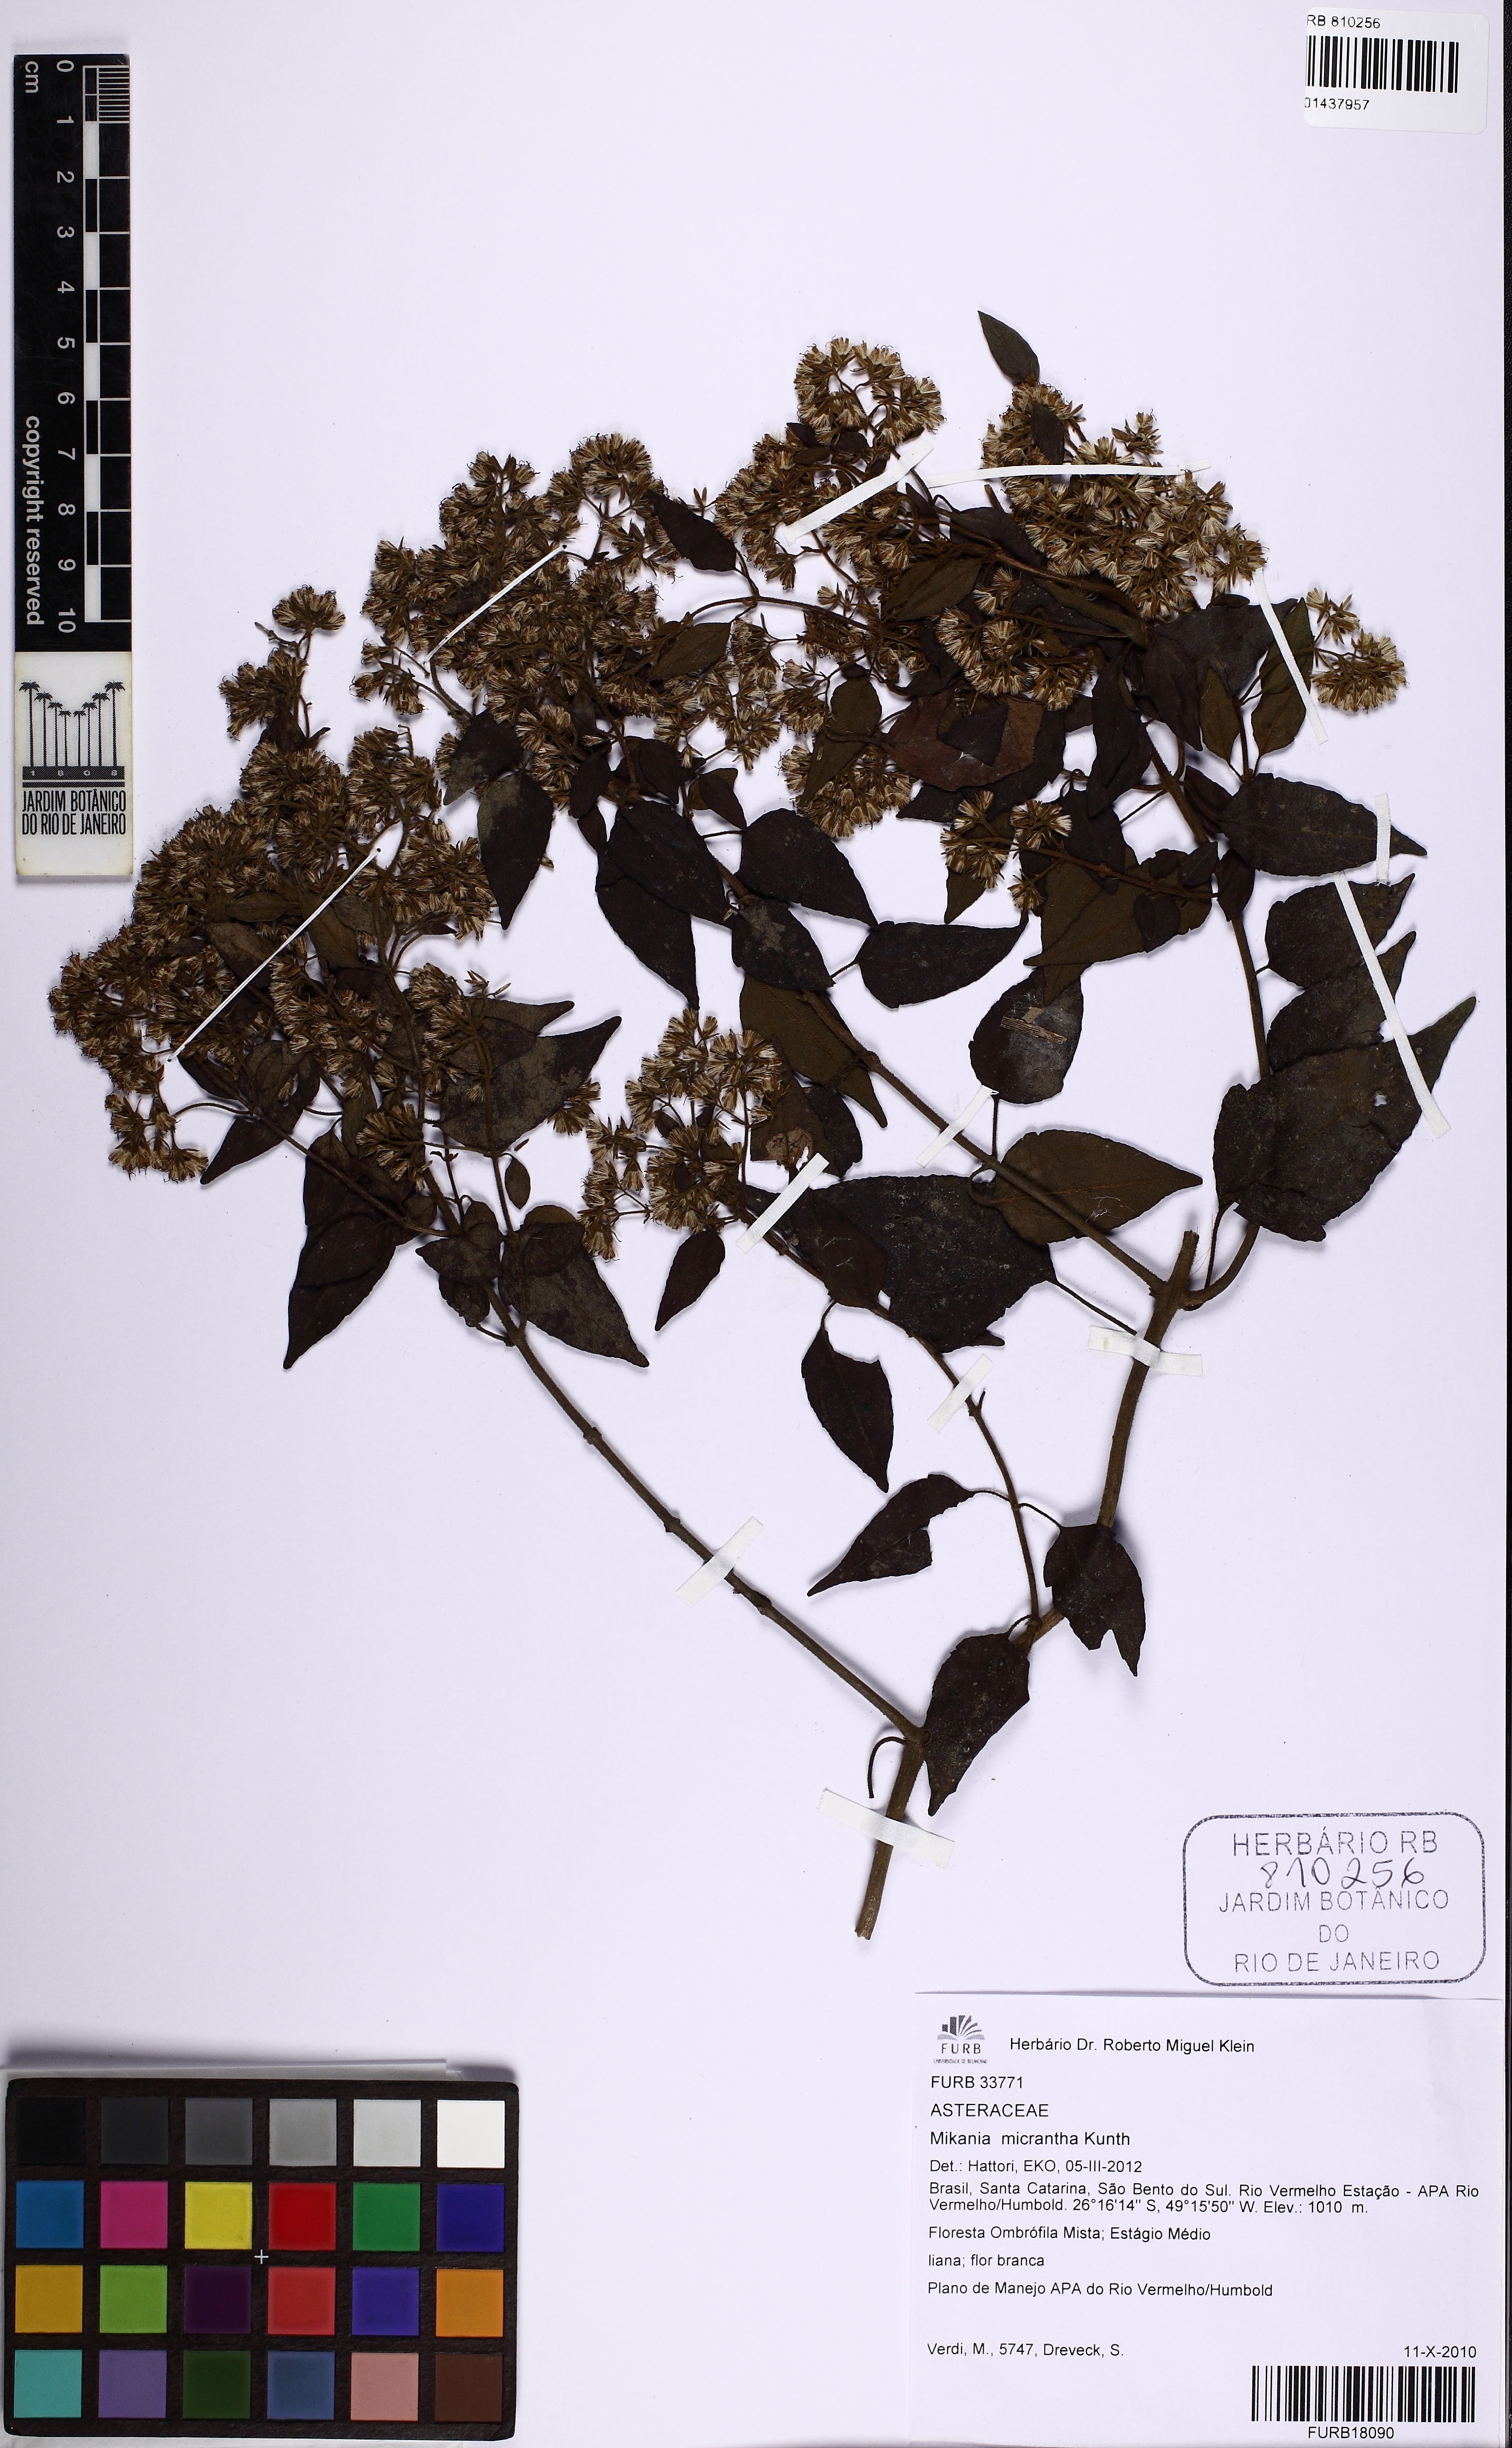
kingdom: Plantae
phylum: Tracheophyta
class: Magnoliopsida
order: Asterales
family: Asteraceae
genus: Mikania
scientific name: Mikania micrantha
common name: Mile-a-minute
